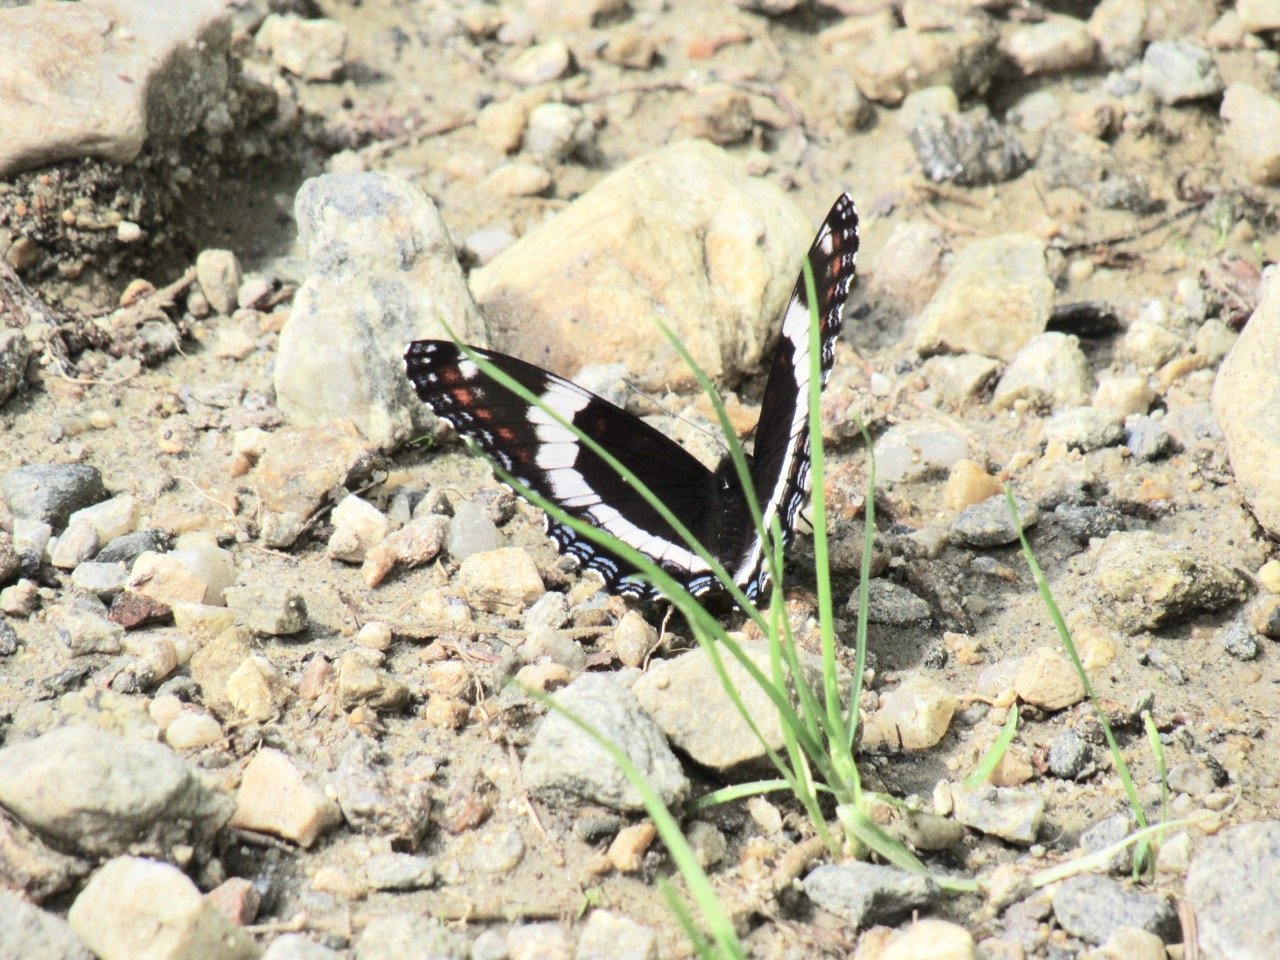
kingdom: Animalia
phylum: Arthropoda
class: Insecta
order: Lepidoptera
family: Nymphalidae
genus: Limenitis
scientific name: Limenitis arthemis
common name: Red-spotted Admiral
